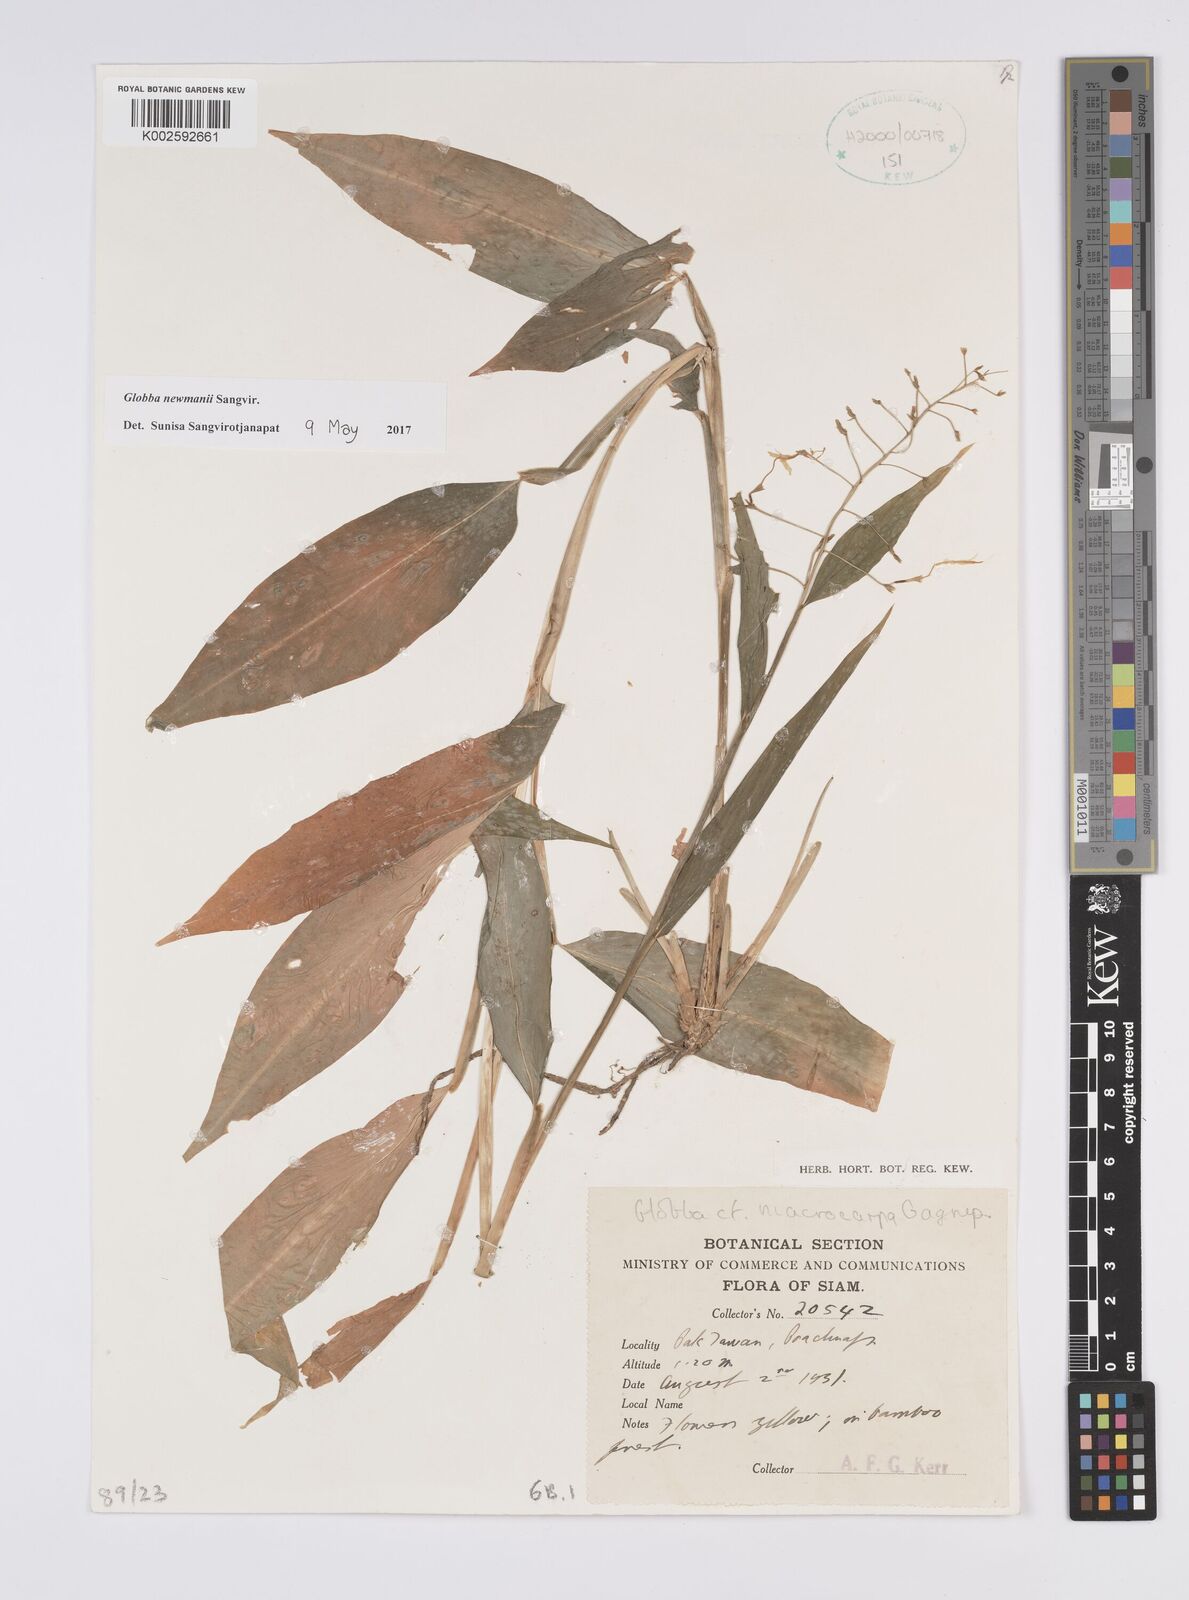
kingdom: Plantae
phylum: Tracheophyta
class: Liliopsida
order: Zingiberales
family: Zingiberaceae
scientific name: Zingiberaceae
